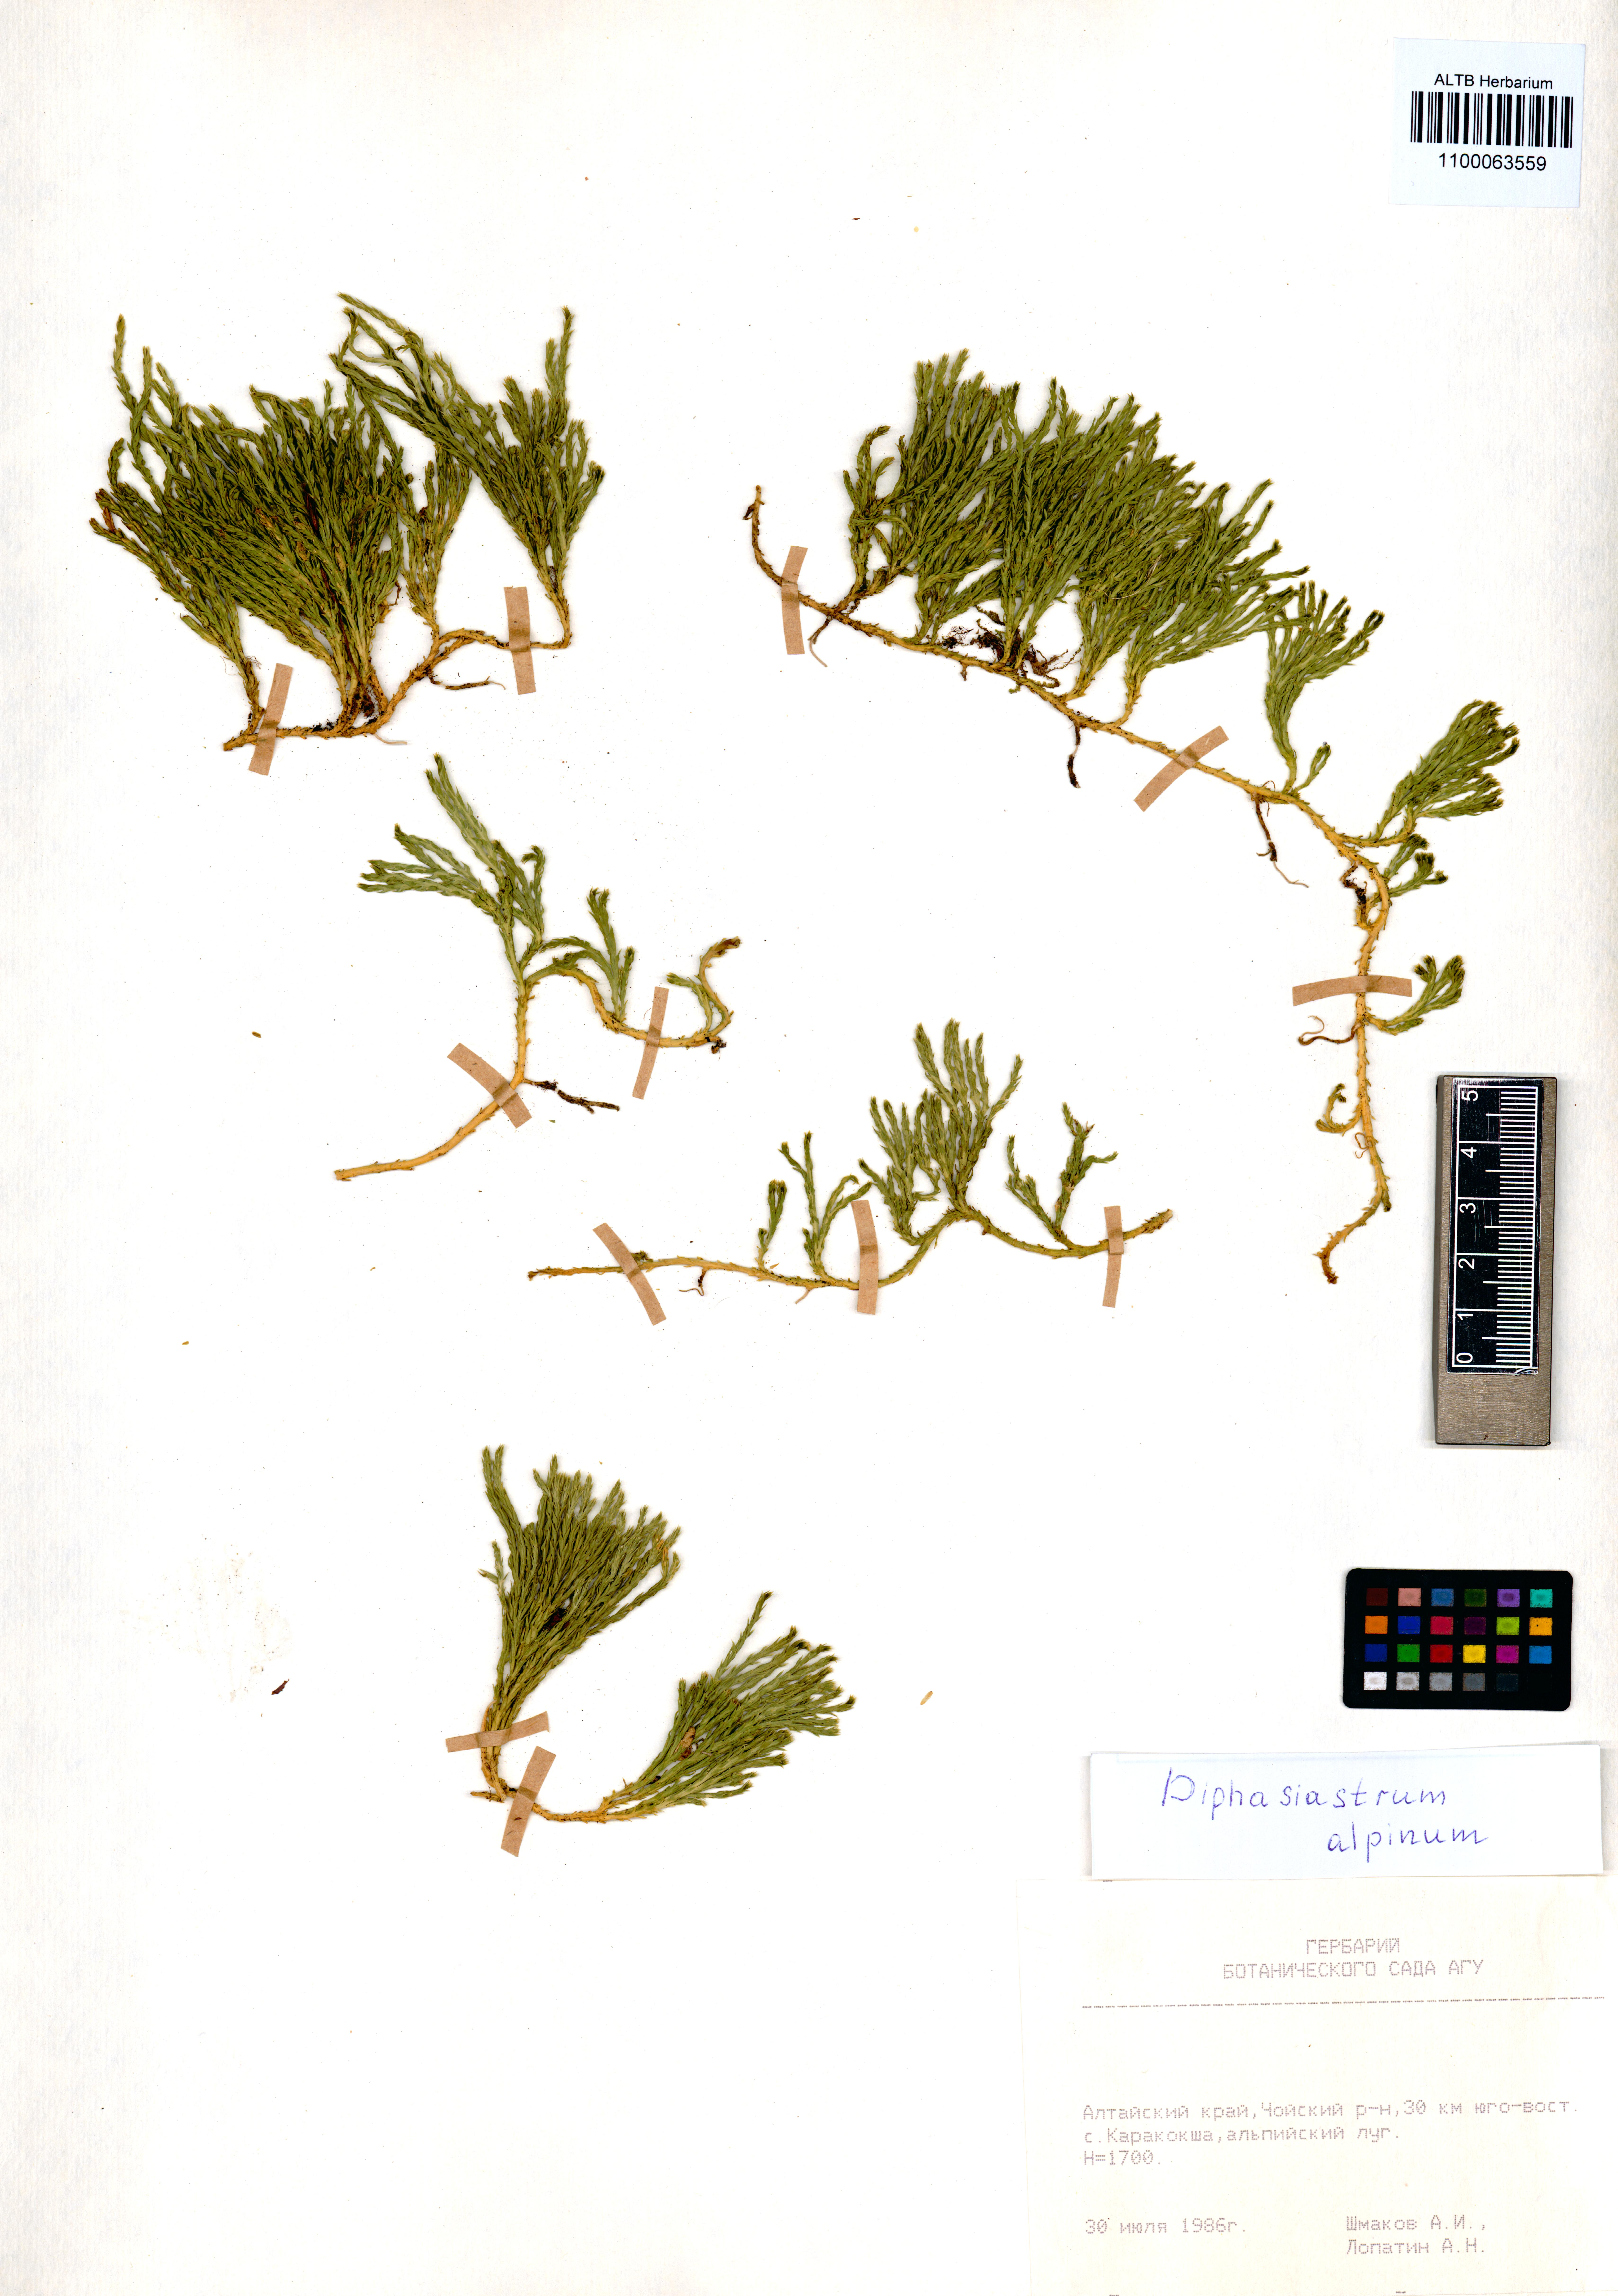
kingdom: Plantae
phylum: Tracheophyta
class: Lycopodiopsida
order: Lycopodiales
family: Lycopodiaceae
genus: Diphasiastrum
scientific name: Diphasiastrum alpinum
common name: Alpine clubmoss
